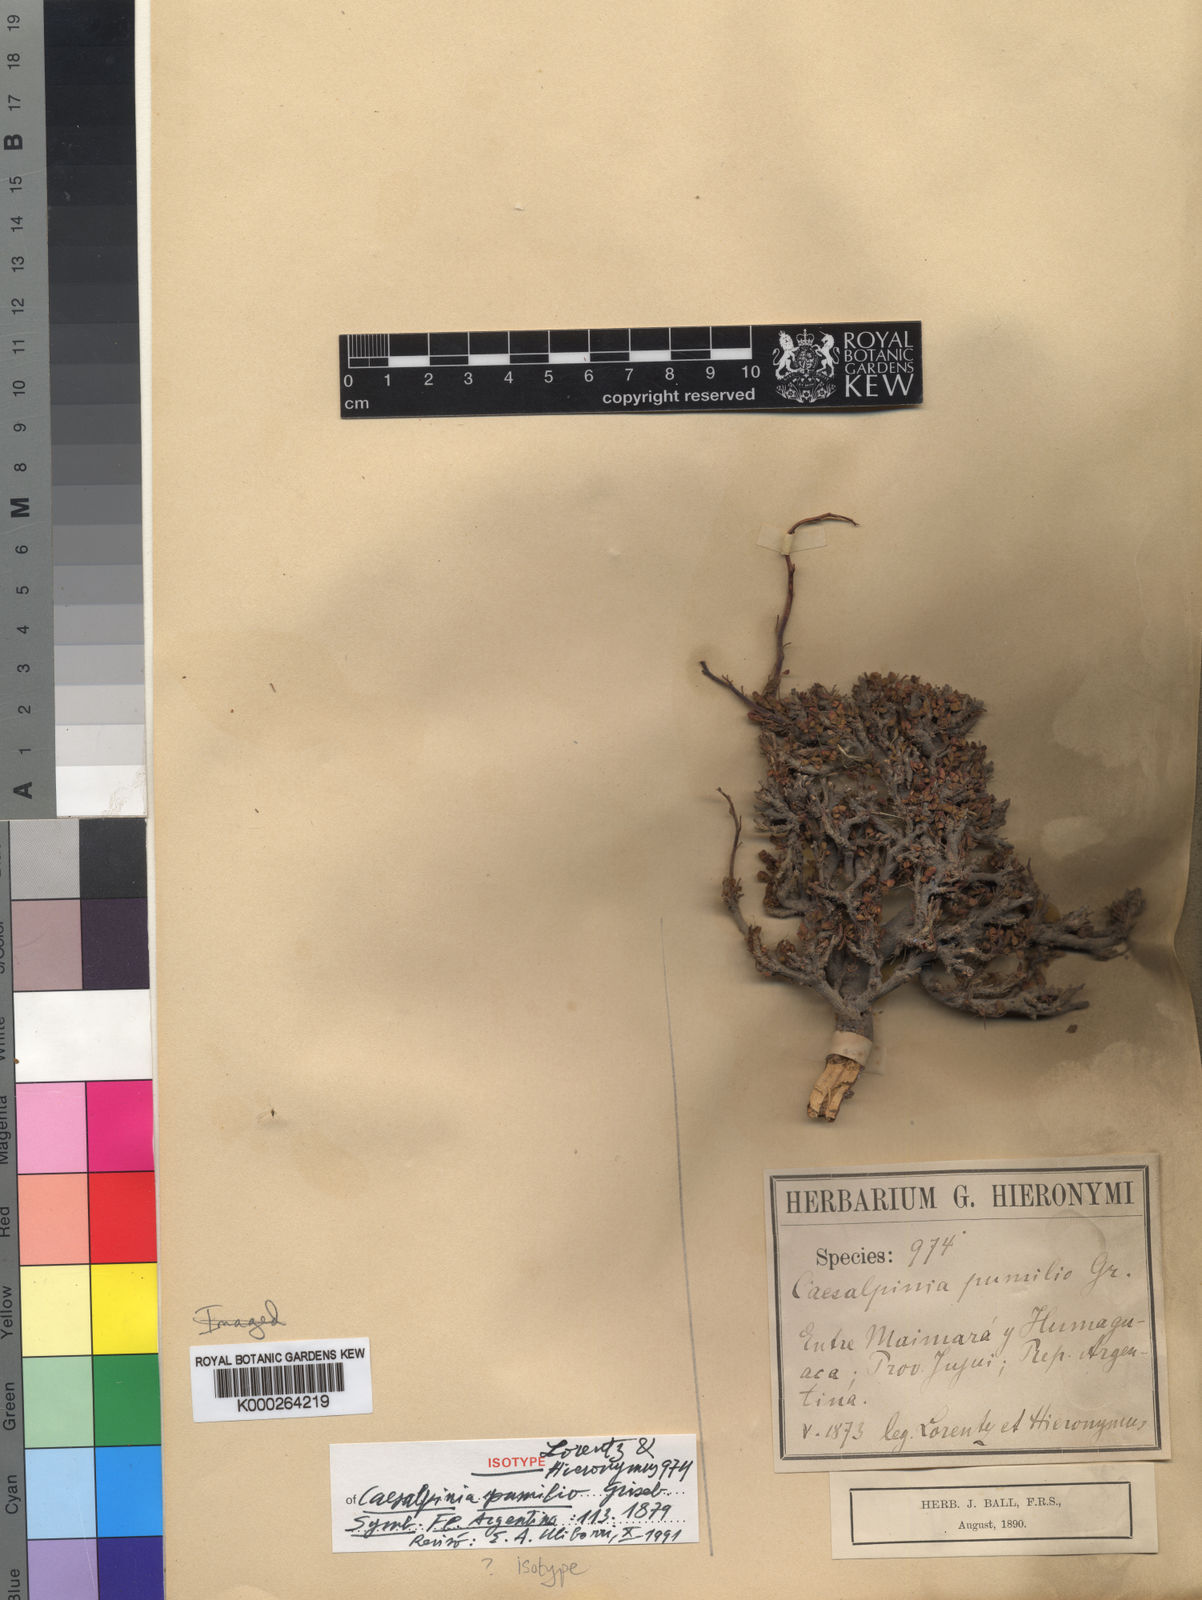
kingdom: Plantae
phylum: Tracheophyta
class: Magnoliopsida
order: Fabales
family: Fabaceae
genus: Caesalpinia
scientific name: Caesalpinia
